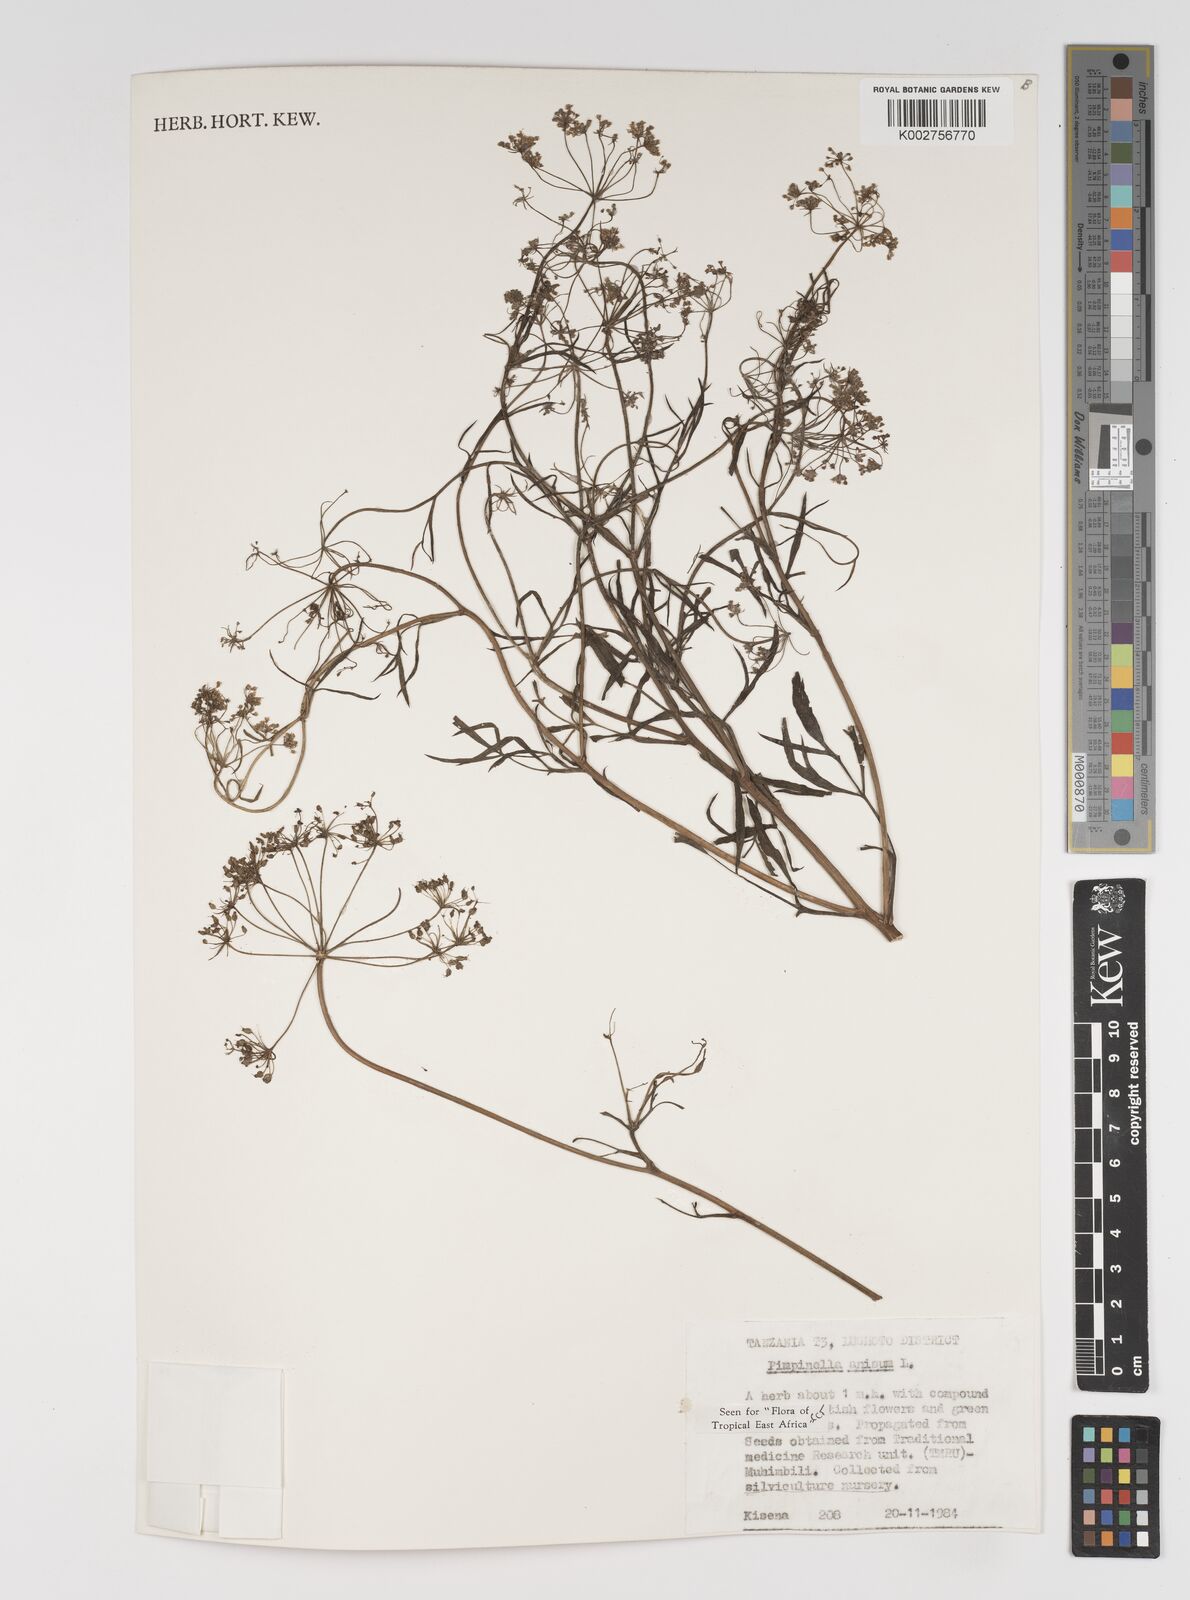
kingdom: Plantae
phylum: Tracheophyta
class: Magnoliopsida
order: Apiales
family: Apiaceae
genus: Pimpinella
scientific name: Pimpinella anisum
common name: Anise burnet saxifrage
